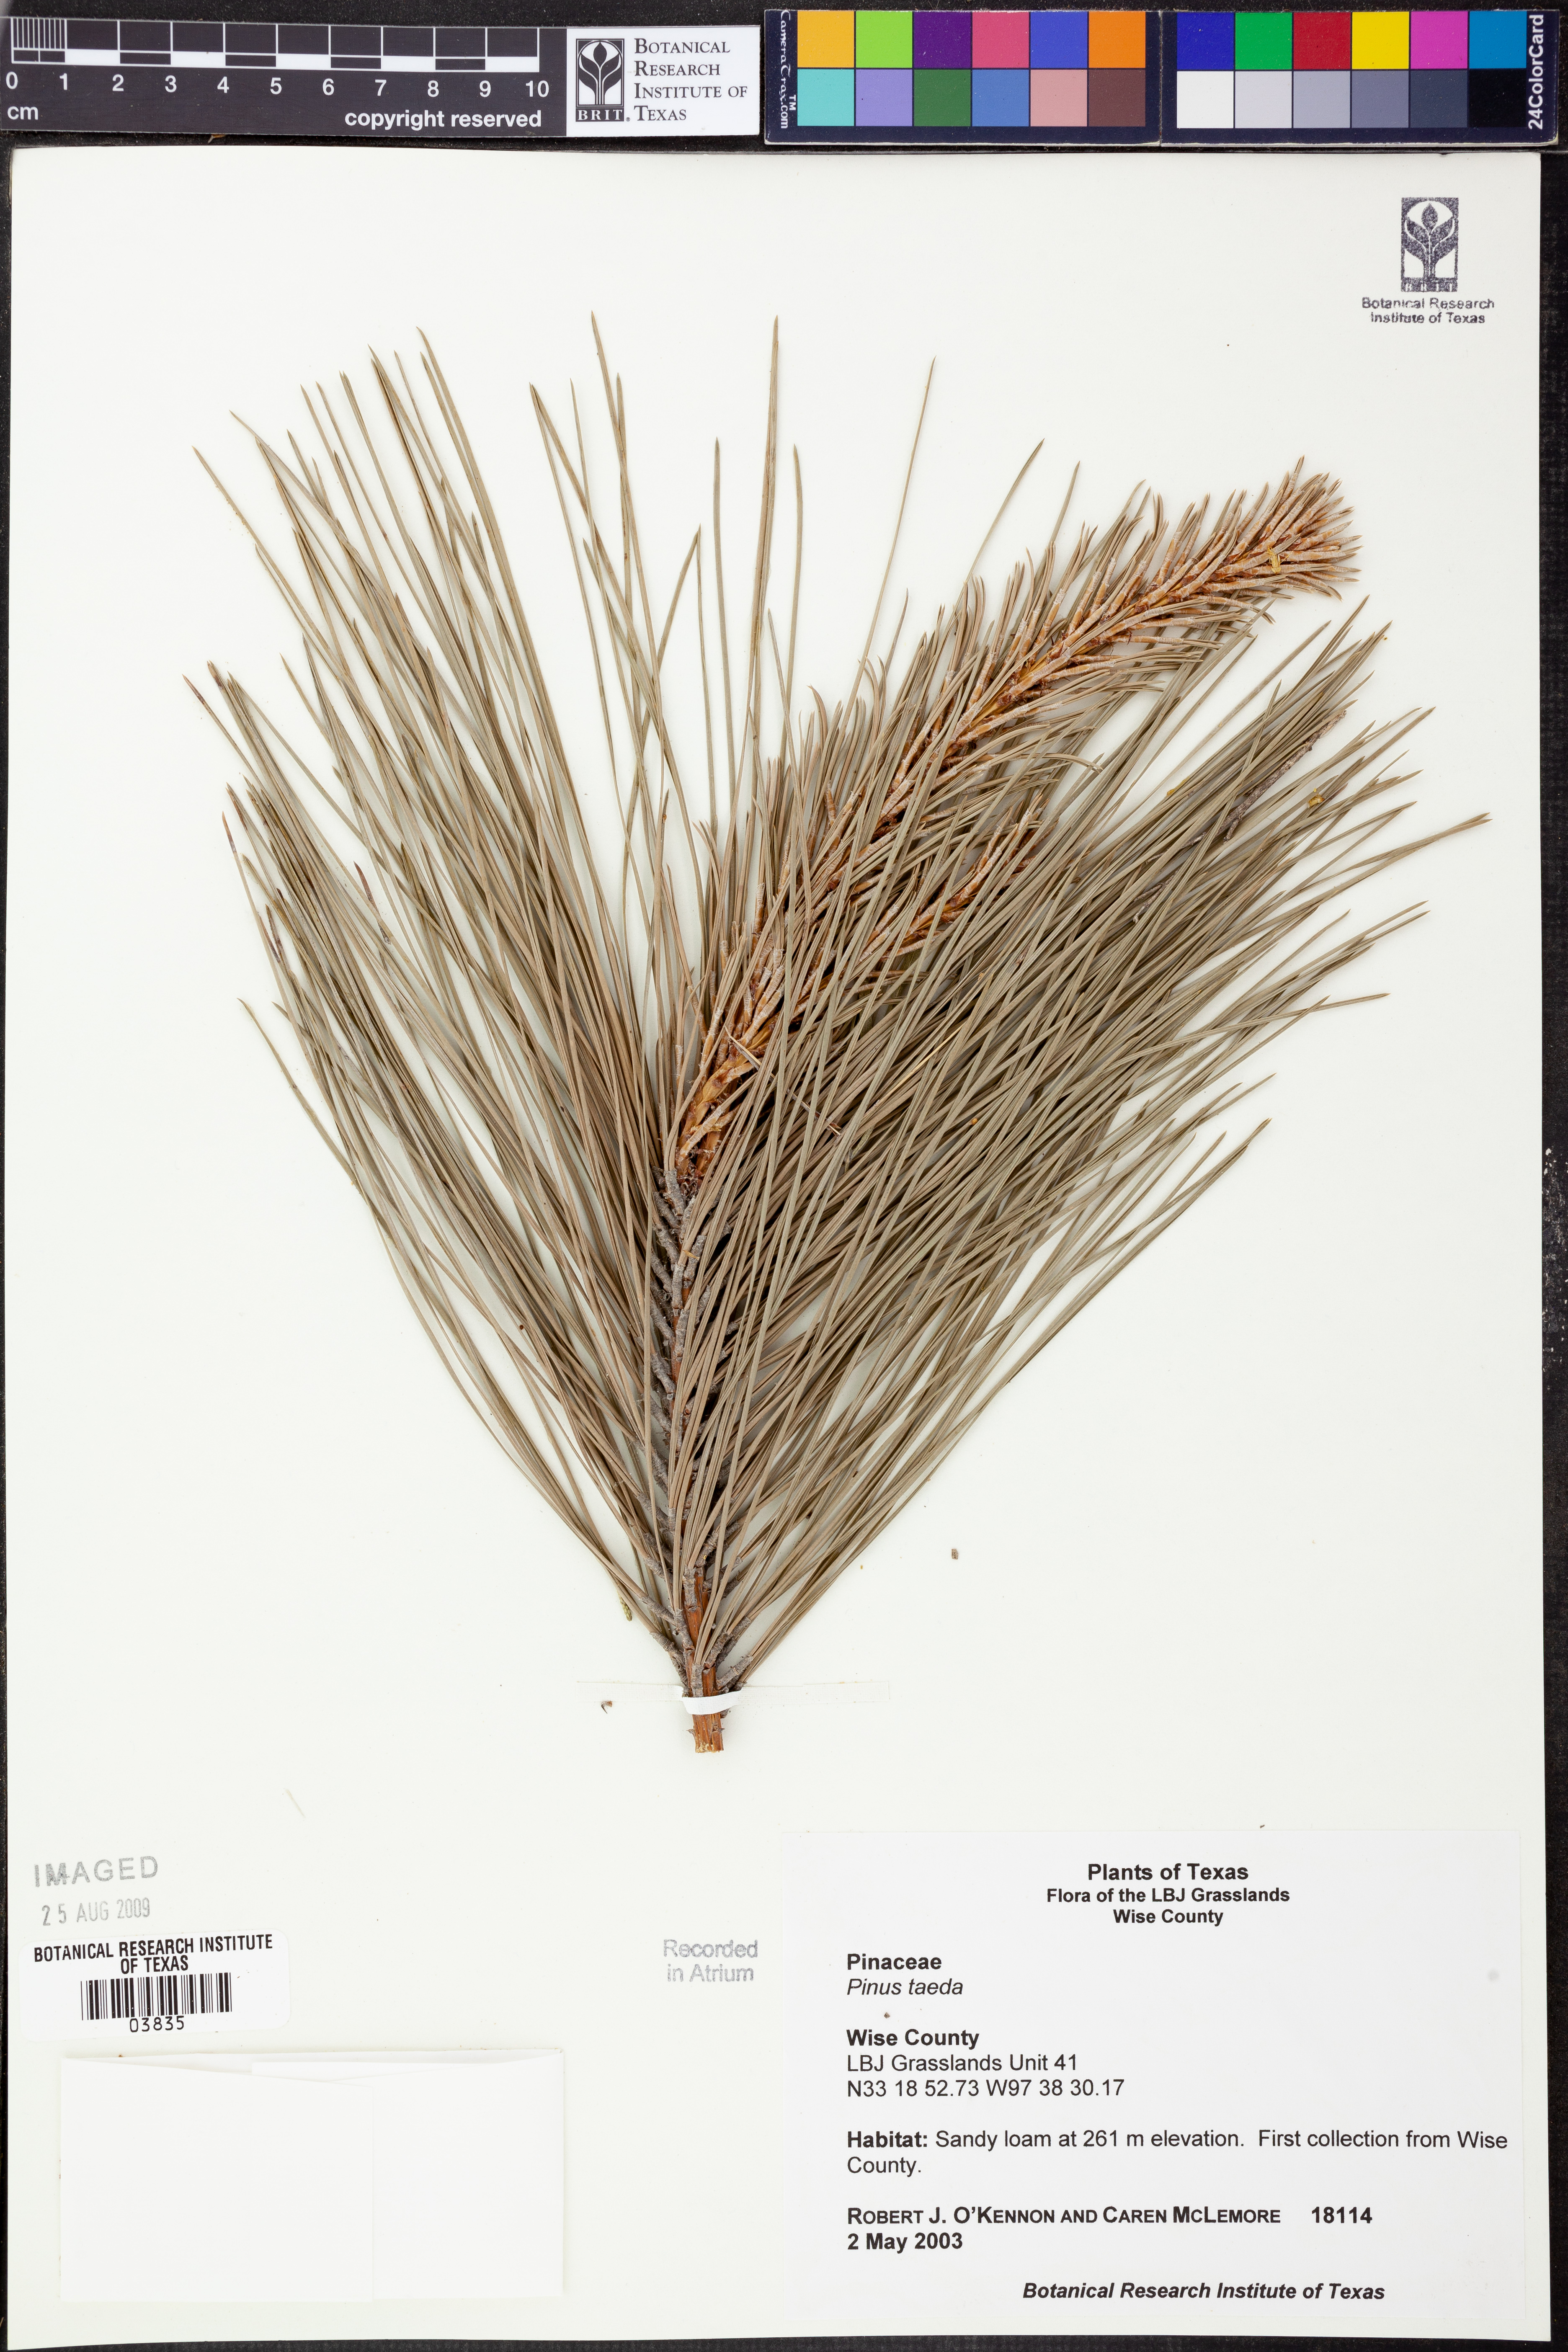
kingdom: Plantae
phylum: Tracheophyta
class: Pinopsida
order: Pinales
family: Pinaceae
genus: Pinus
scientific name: Pinus taeda
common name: Loblolly pine
